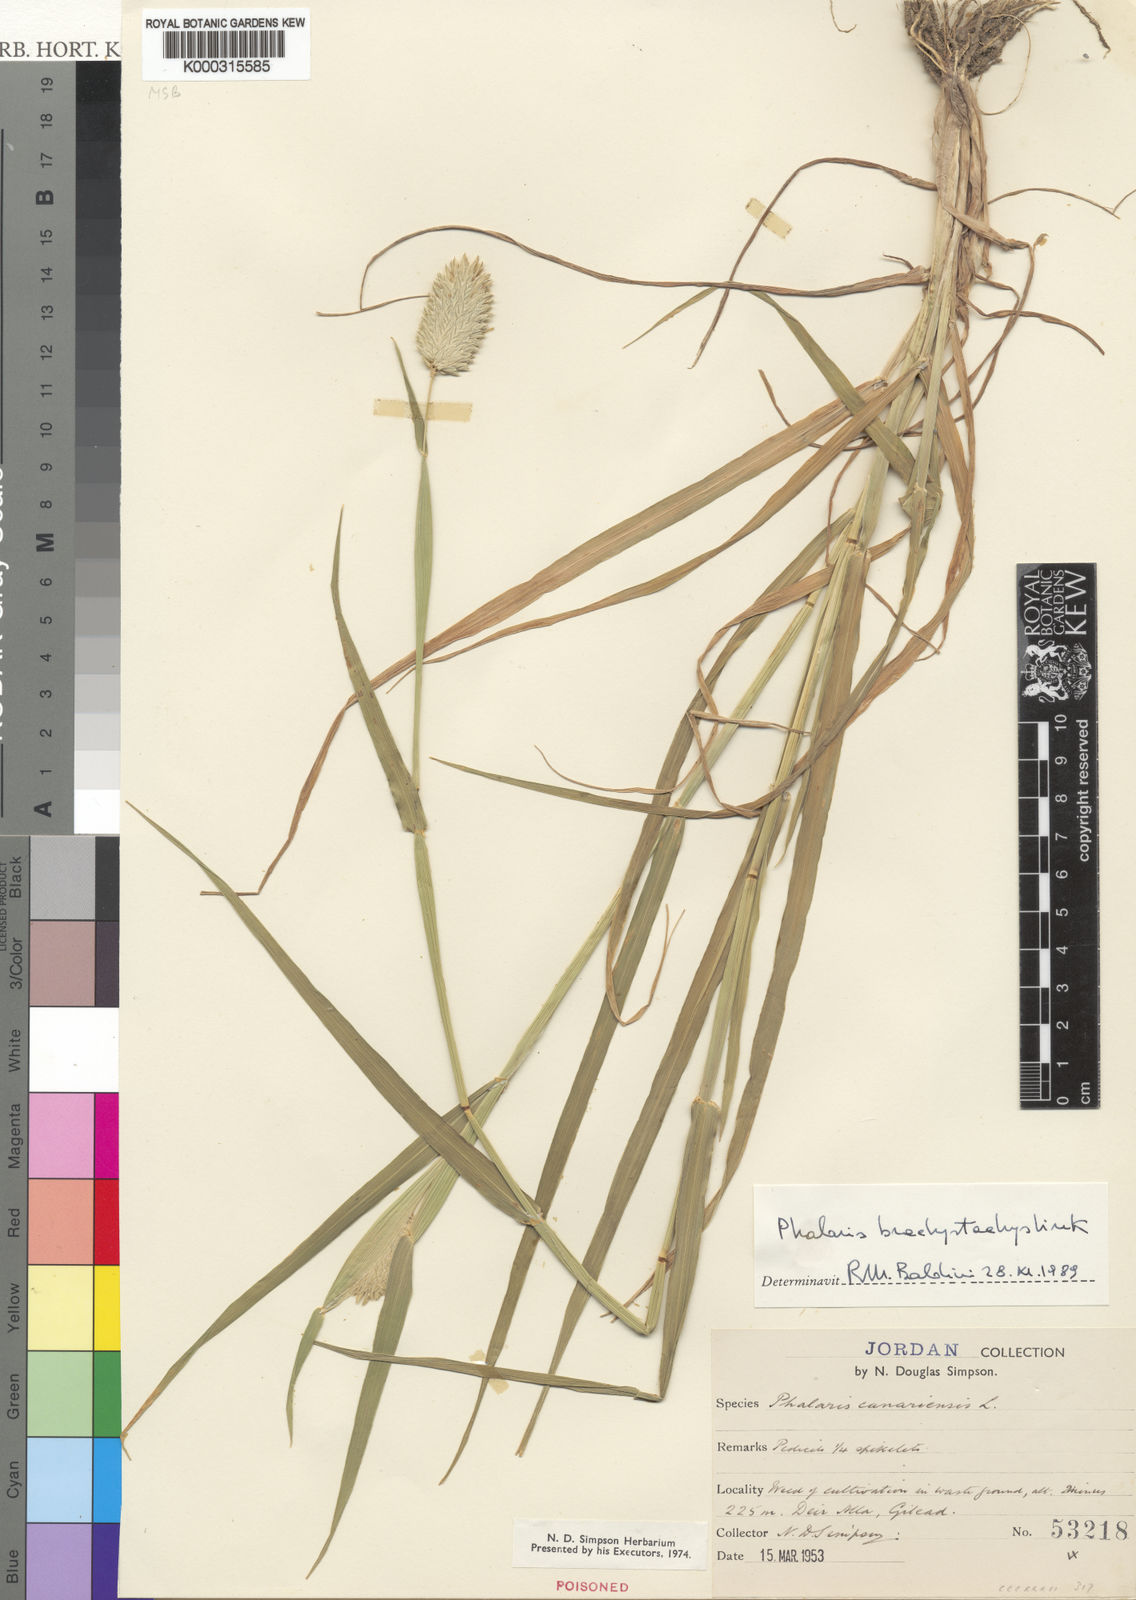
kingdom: Plantae
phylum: Tracheophyta
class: Liliopsida
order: Poales
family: Poaceae
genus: Phalaris
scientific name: Phalaris canariensis
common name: Annual canarygrass
